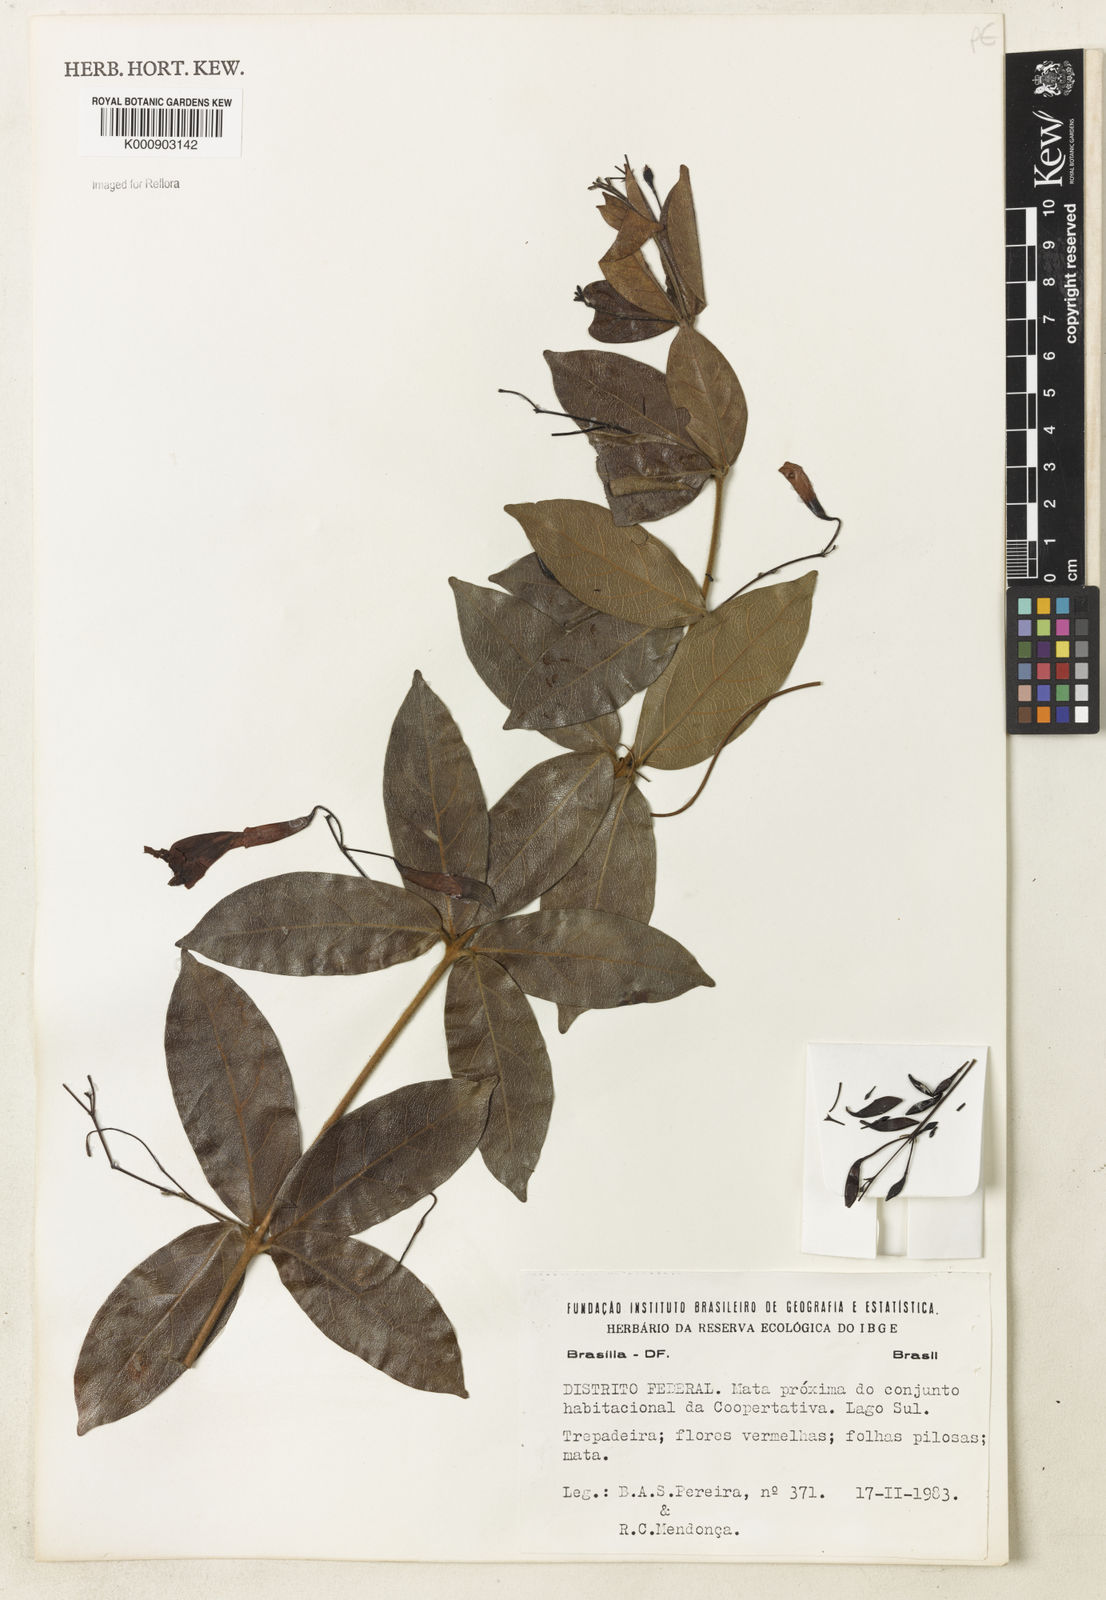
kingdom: Plantae
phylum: Tracheophyta
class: Magnoliopsida
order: Lamiales
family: Bignoniaceae
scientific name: Bignoniaceae
